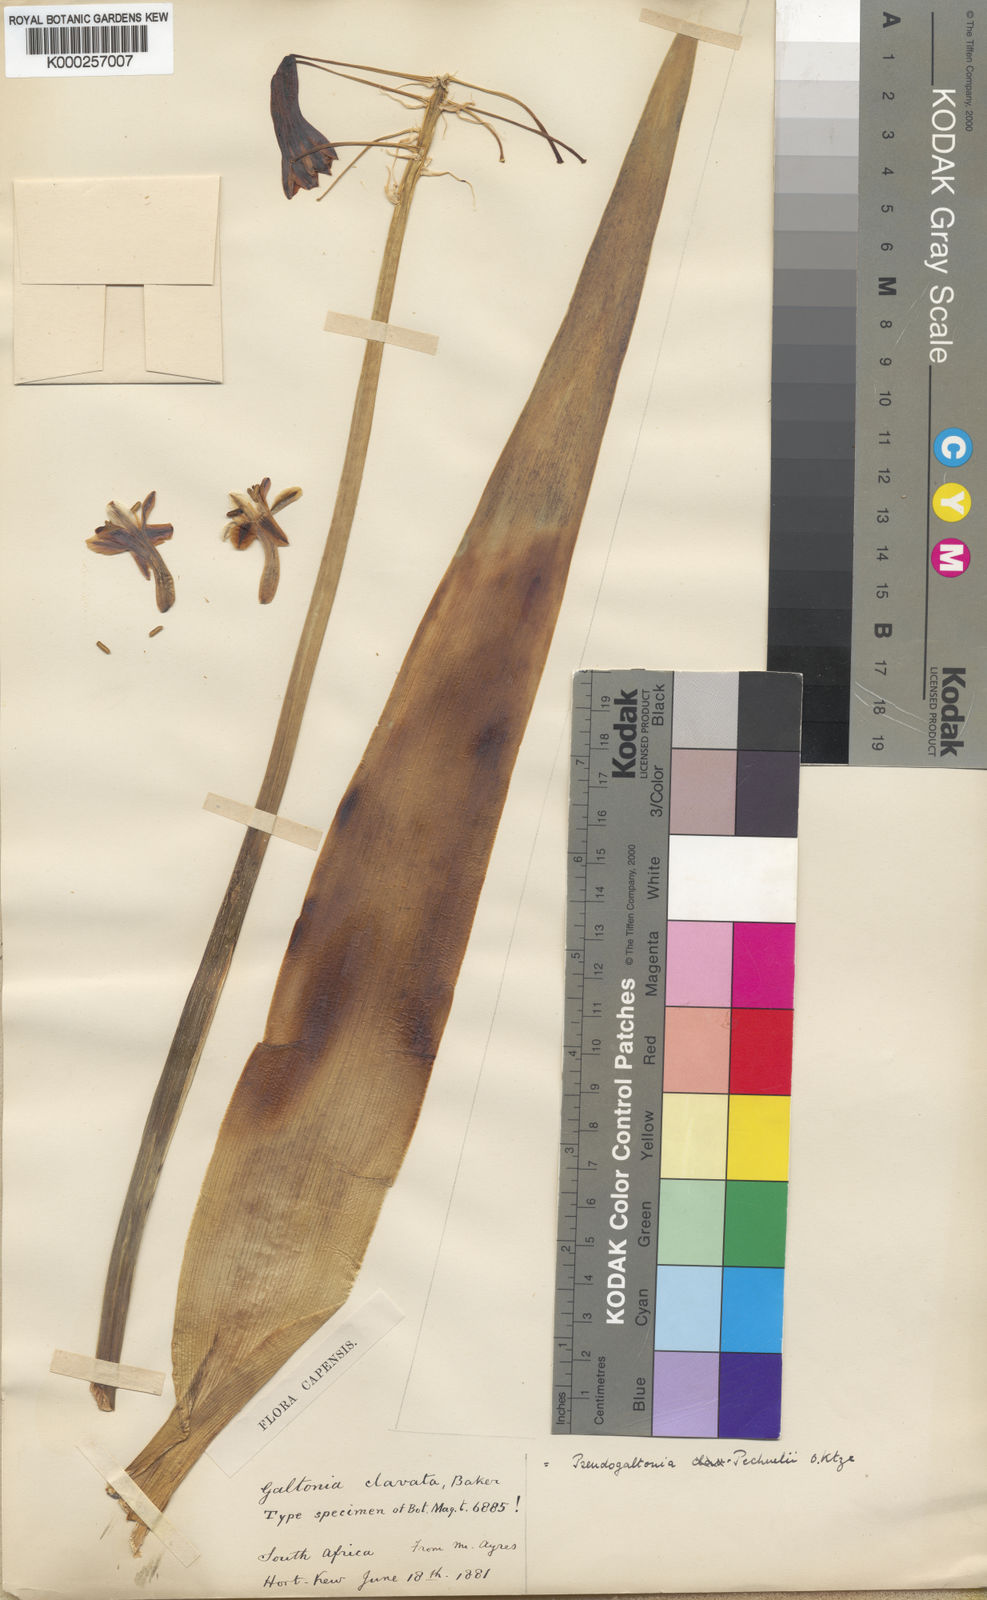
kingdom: Plantae
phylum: Tracheophyta
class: Liliopsida
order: Asparagales
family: Asparagaceae
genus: Pseudogaltonia
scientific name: Pseudogaltonia clavata
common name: South west african slangkop
